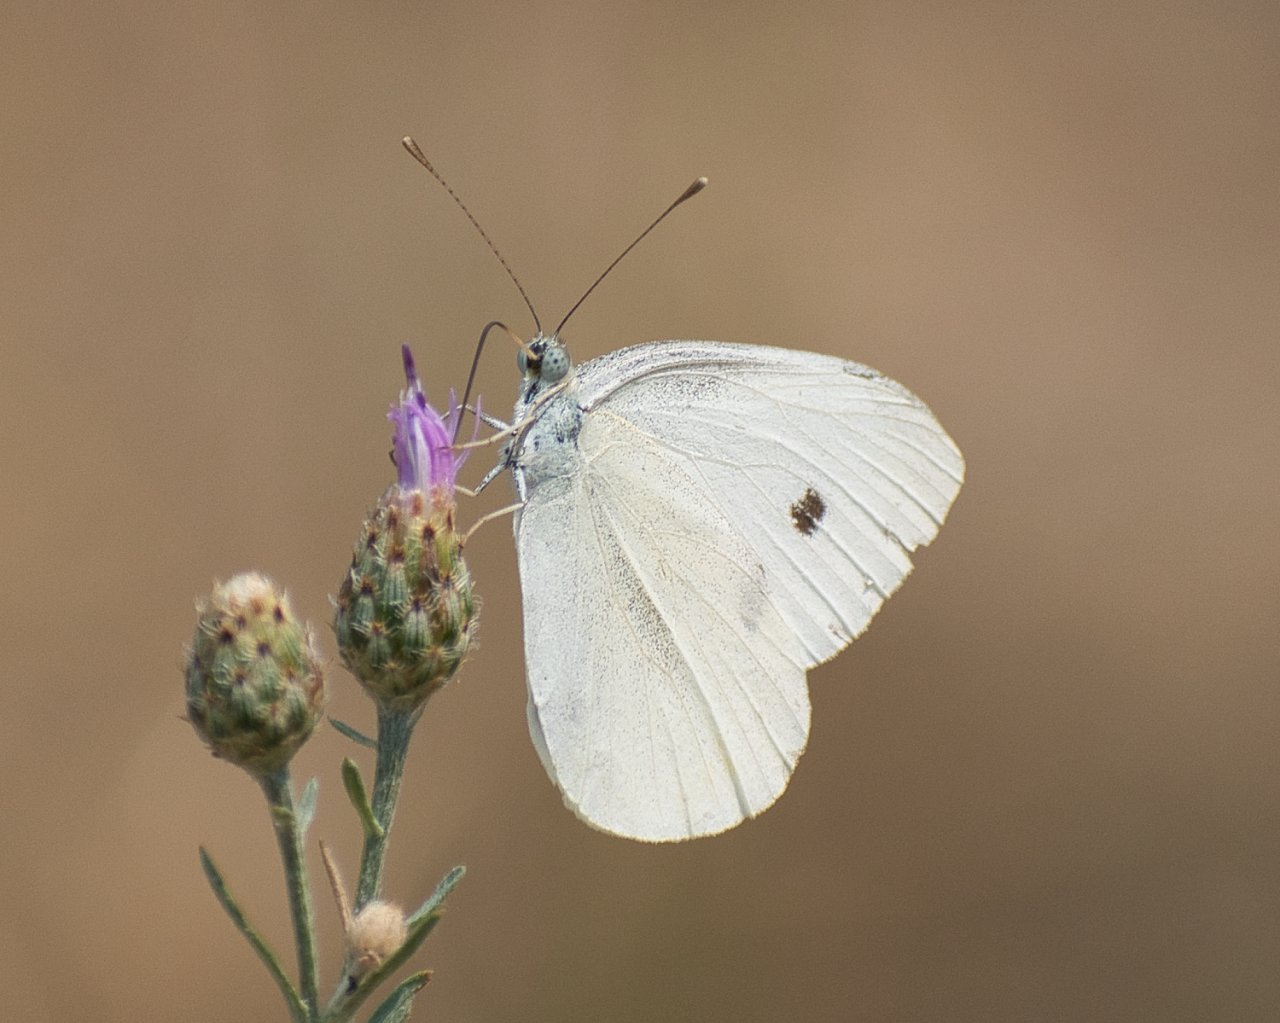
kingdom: Animalia
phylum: Arthropoda
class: Insecta
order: Lepidoptera
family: Pieridae
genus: Pieris
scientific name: Pieris rapae
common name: Cabbage White
